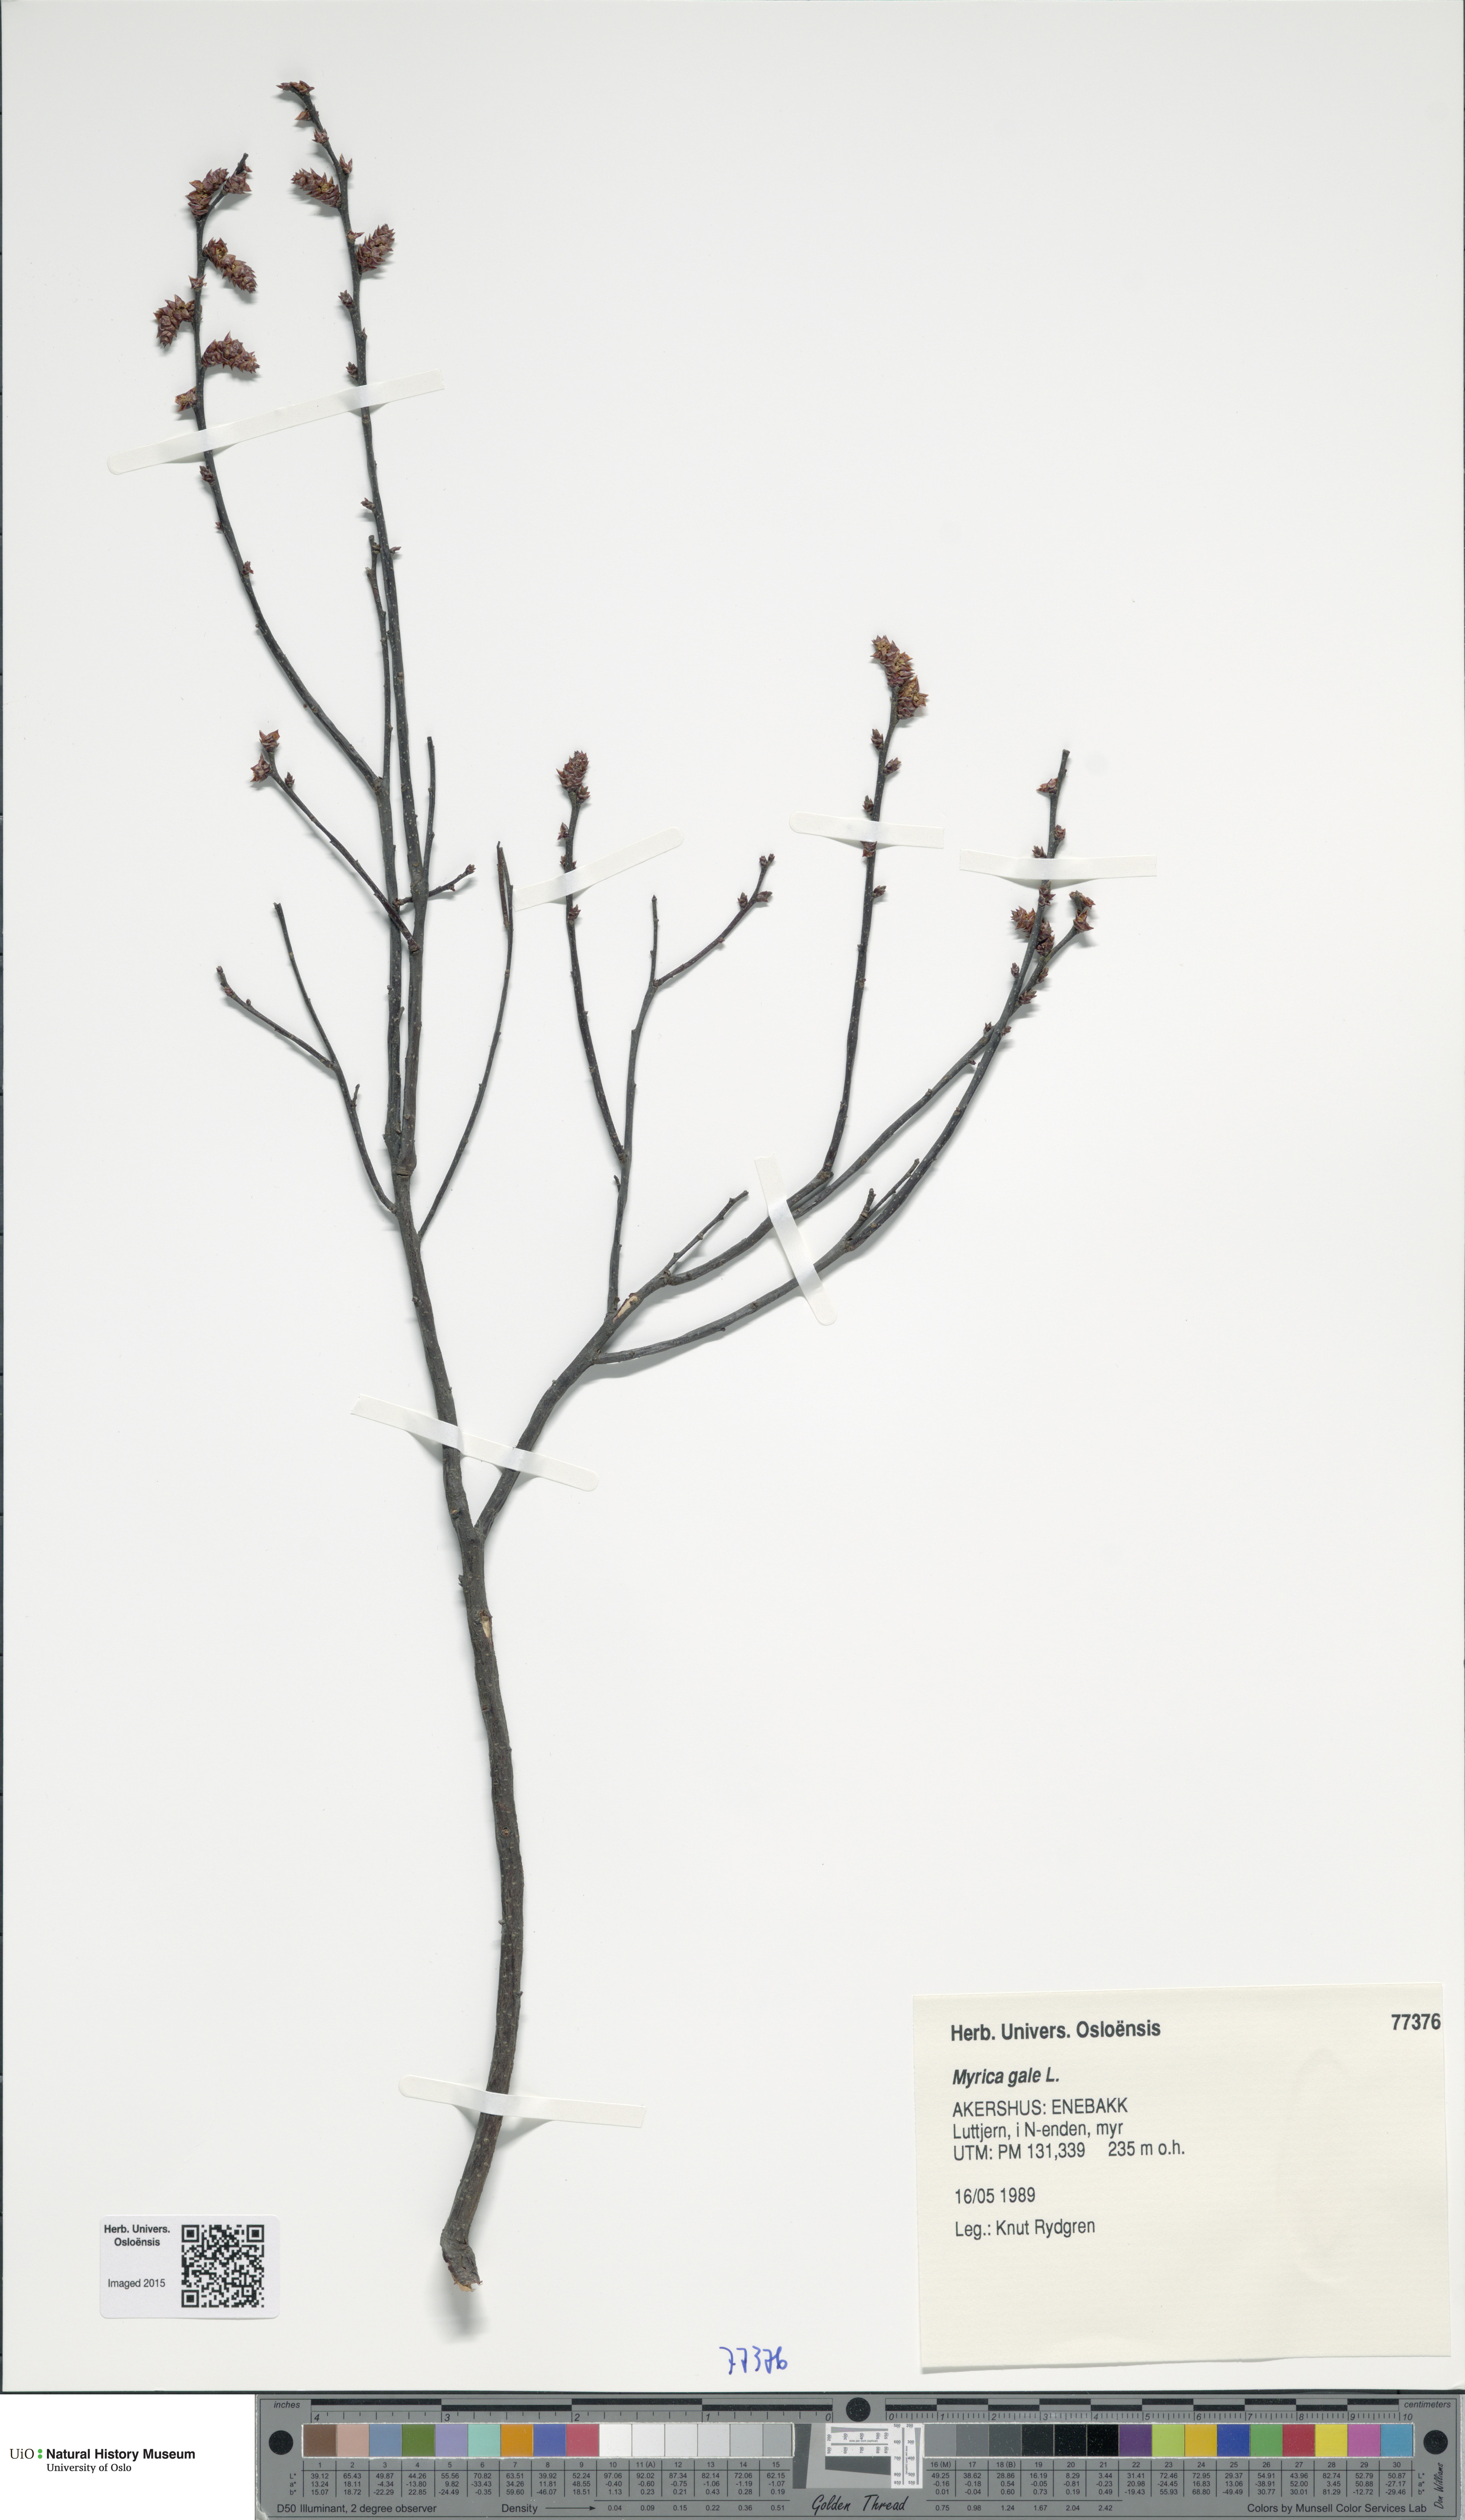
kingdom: Plantae
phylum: Tracheophyta
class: Magnoliopsida
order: Fagales
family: Myricaceae
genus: Myrica
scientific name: Myrica gale
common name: Sweet gale
